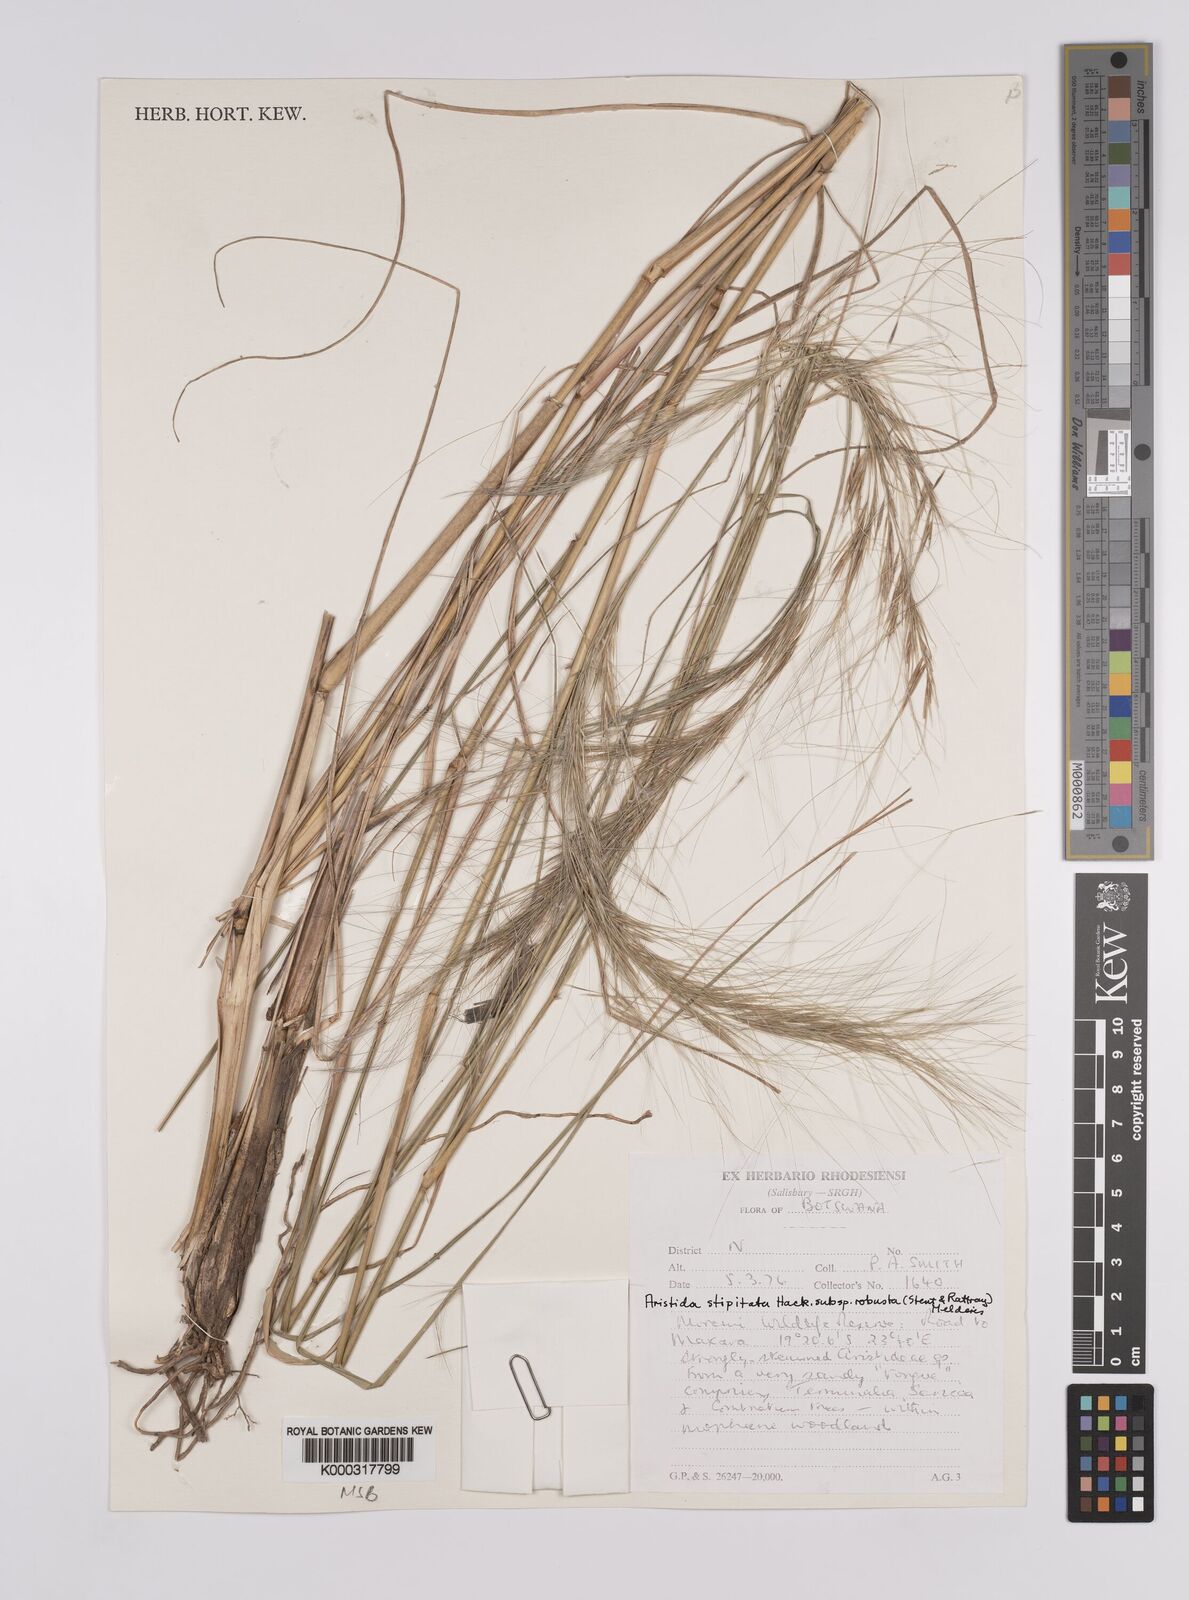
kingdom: Plantae
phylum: Tracheophyta
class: Liliopsida
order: Poales
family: Poaceae
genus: Aristida
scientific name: Aristida stipitata
